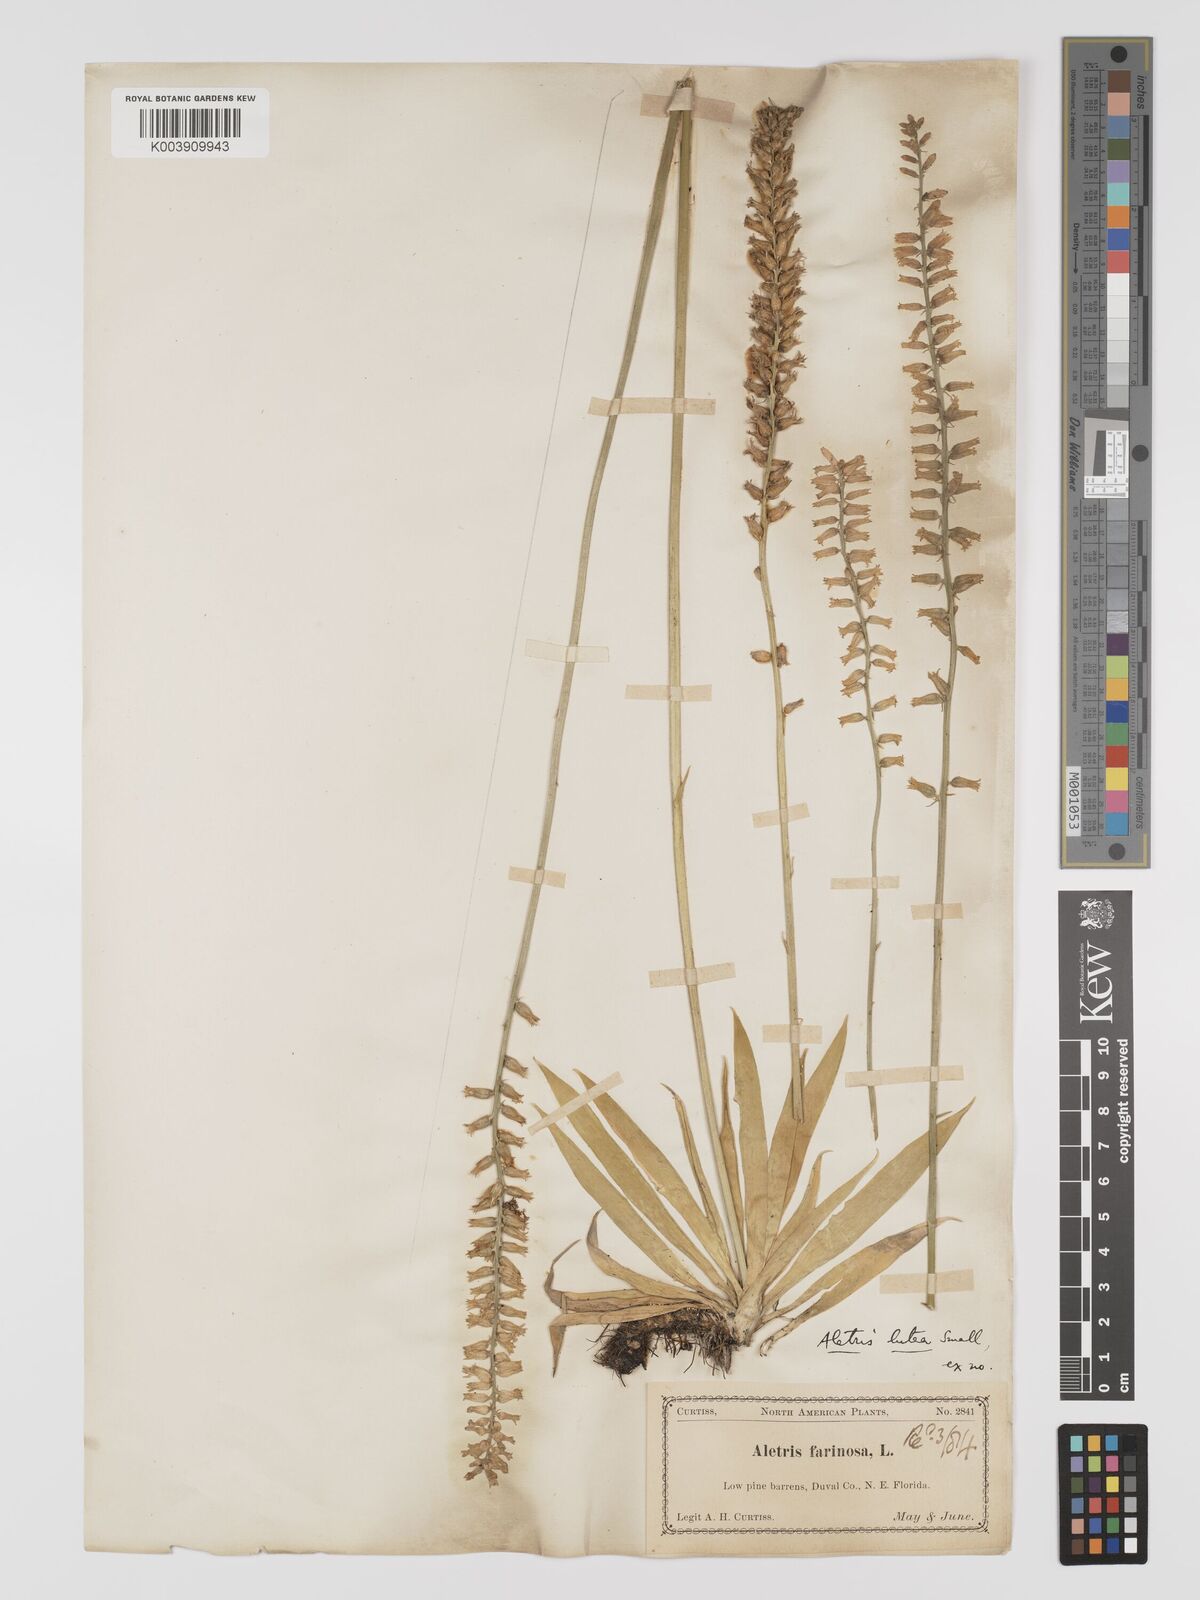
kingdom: Plantae
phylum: Tracheophyta
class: Liliopsida
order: Dioscoreales
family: Nartheciaceae
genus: Aletris
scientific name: Aletris lutea
